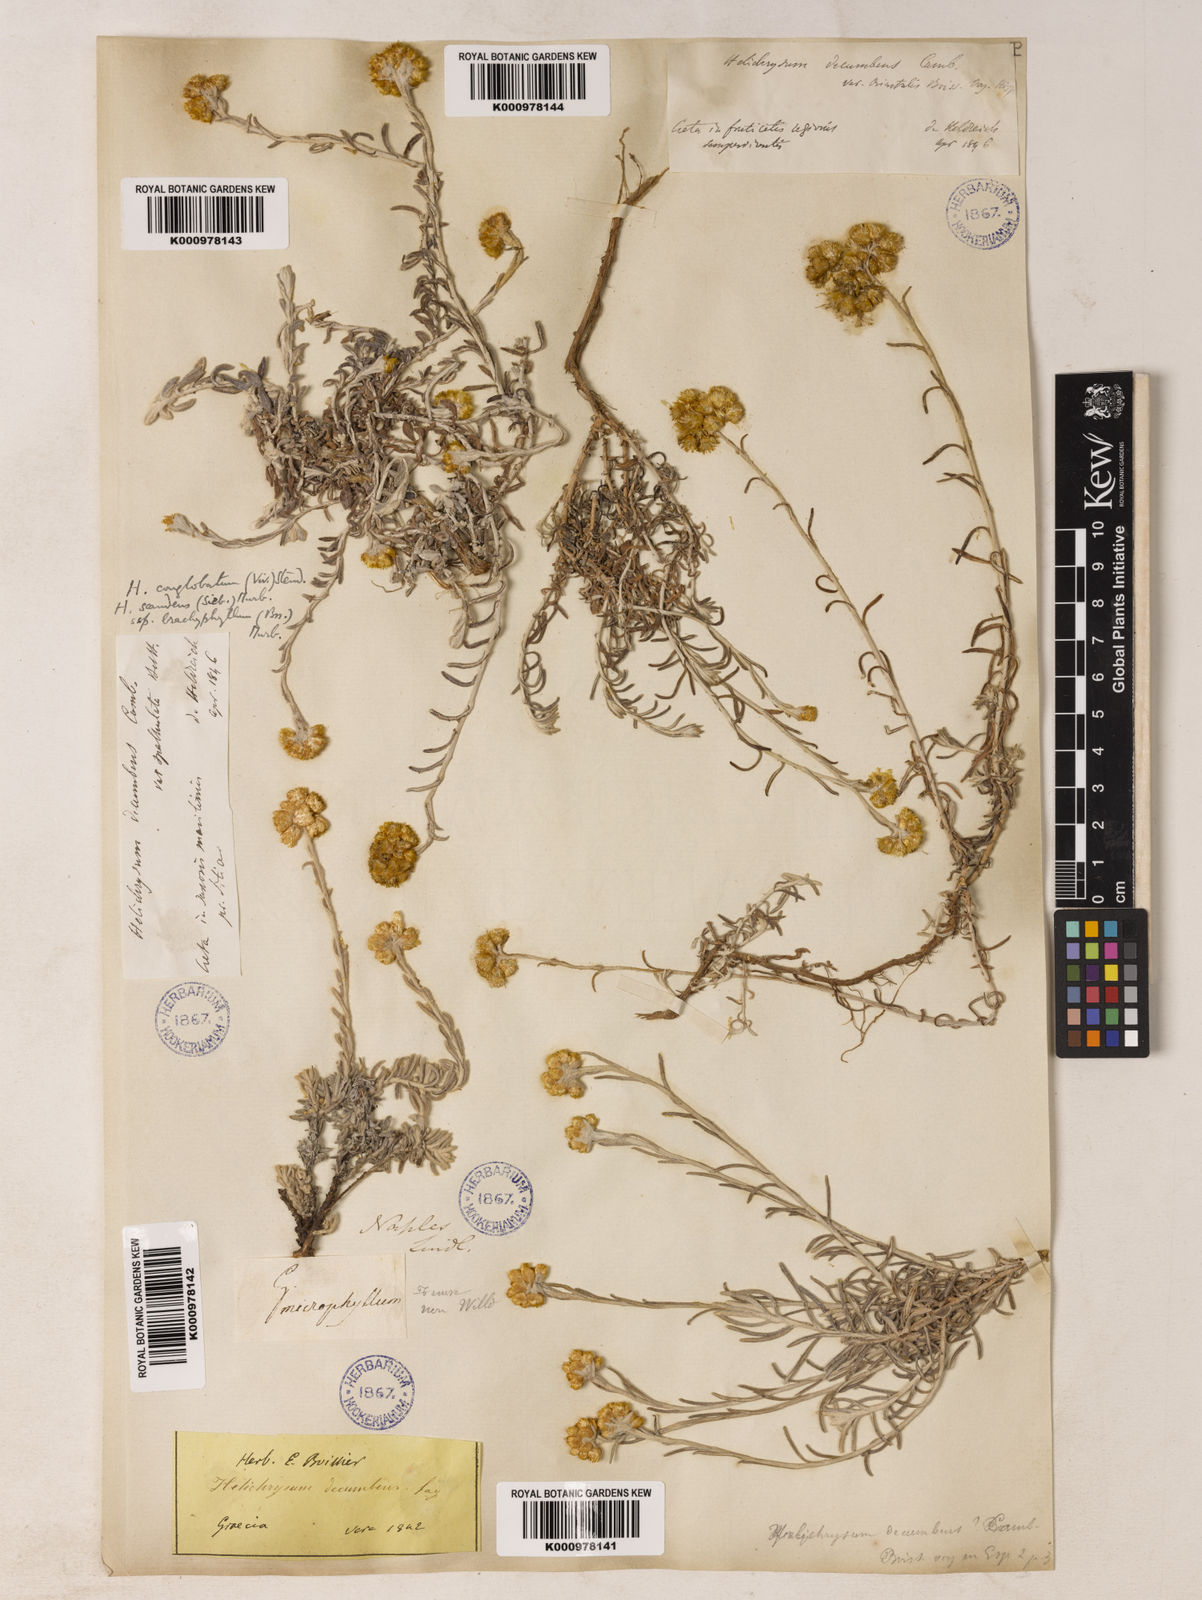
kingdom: Plantae
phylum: Tracheophyta
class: Magnoliopsida
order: Asterales
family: Asteraceae
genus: Helichrysum
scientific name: Helichrysum
